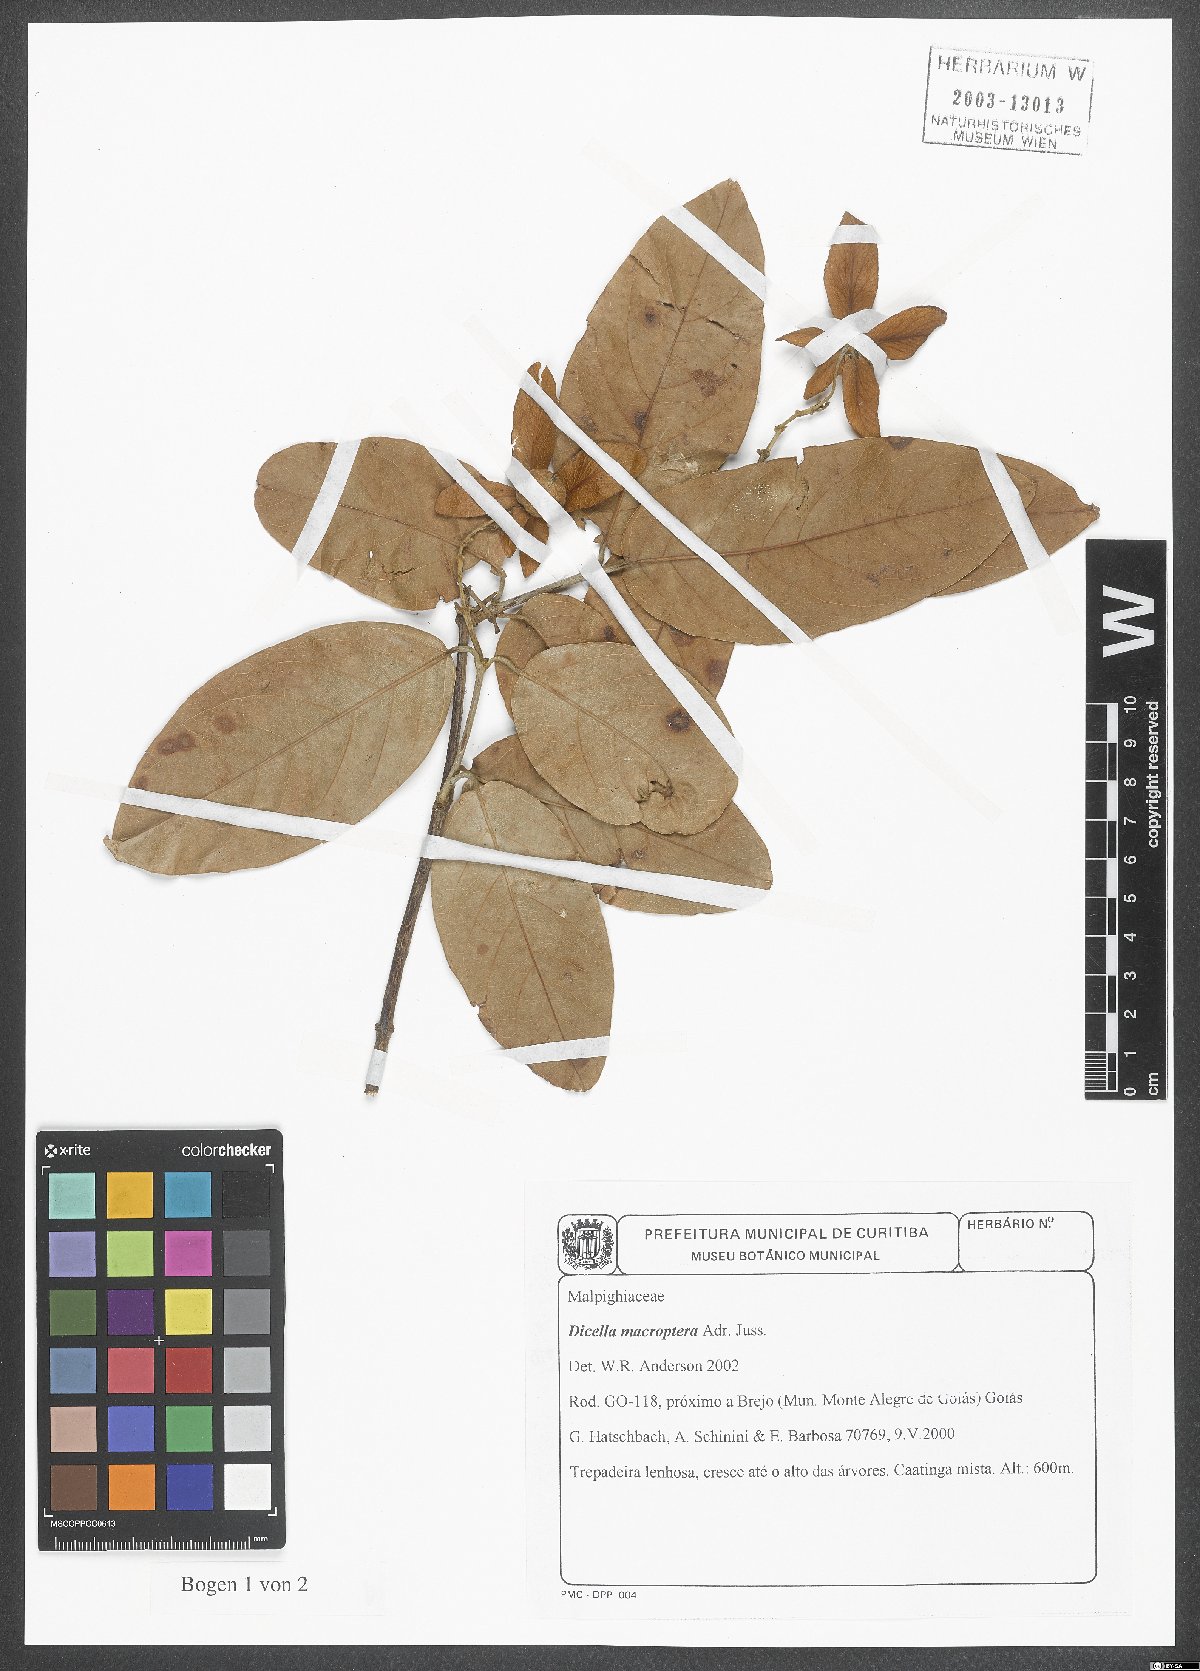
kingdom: Plantae
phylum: Tracheophyta
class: Magnoliopsida
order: Malpighiales
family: Malpighiaceae
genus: Dicella
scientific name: Dicella macroptera
